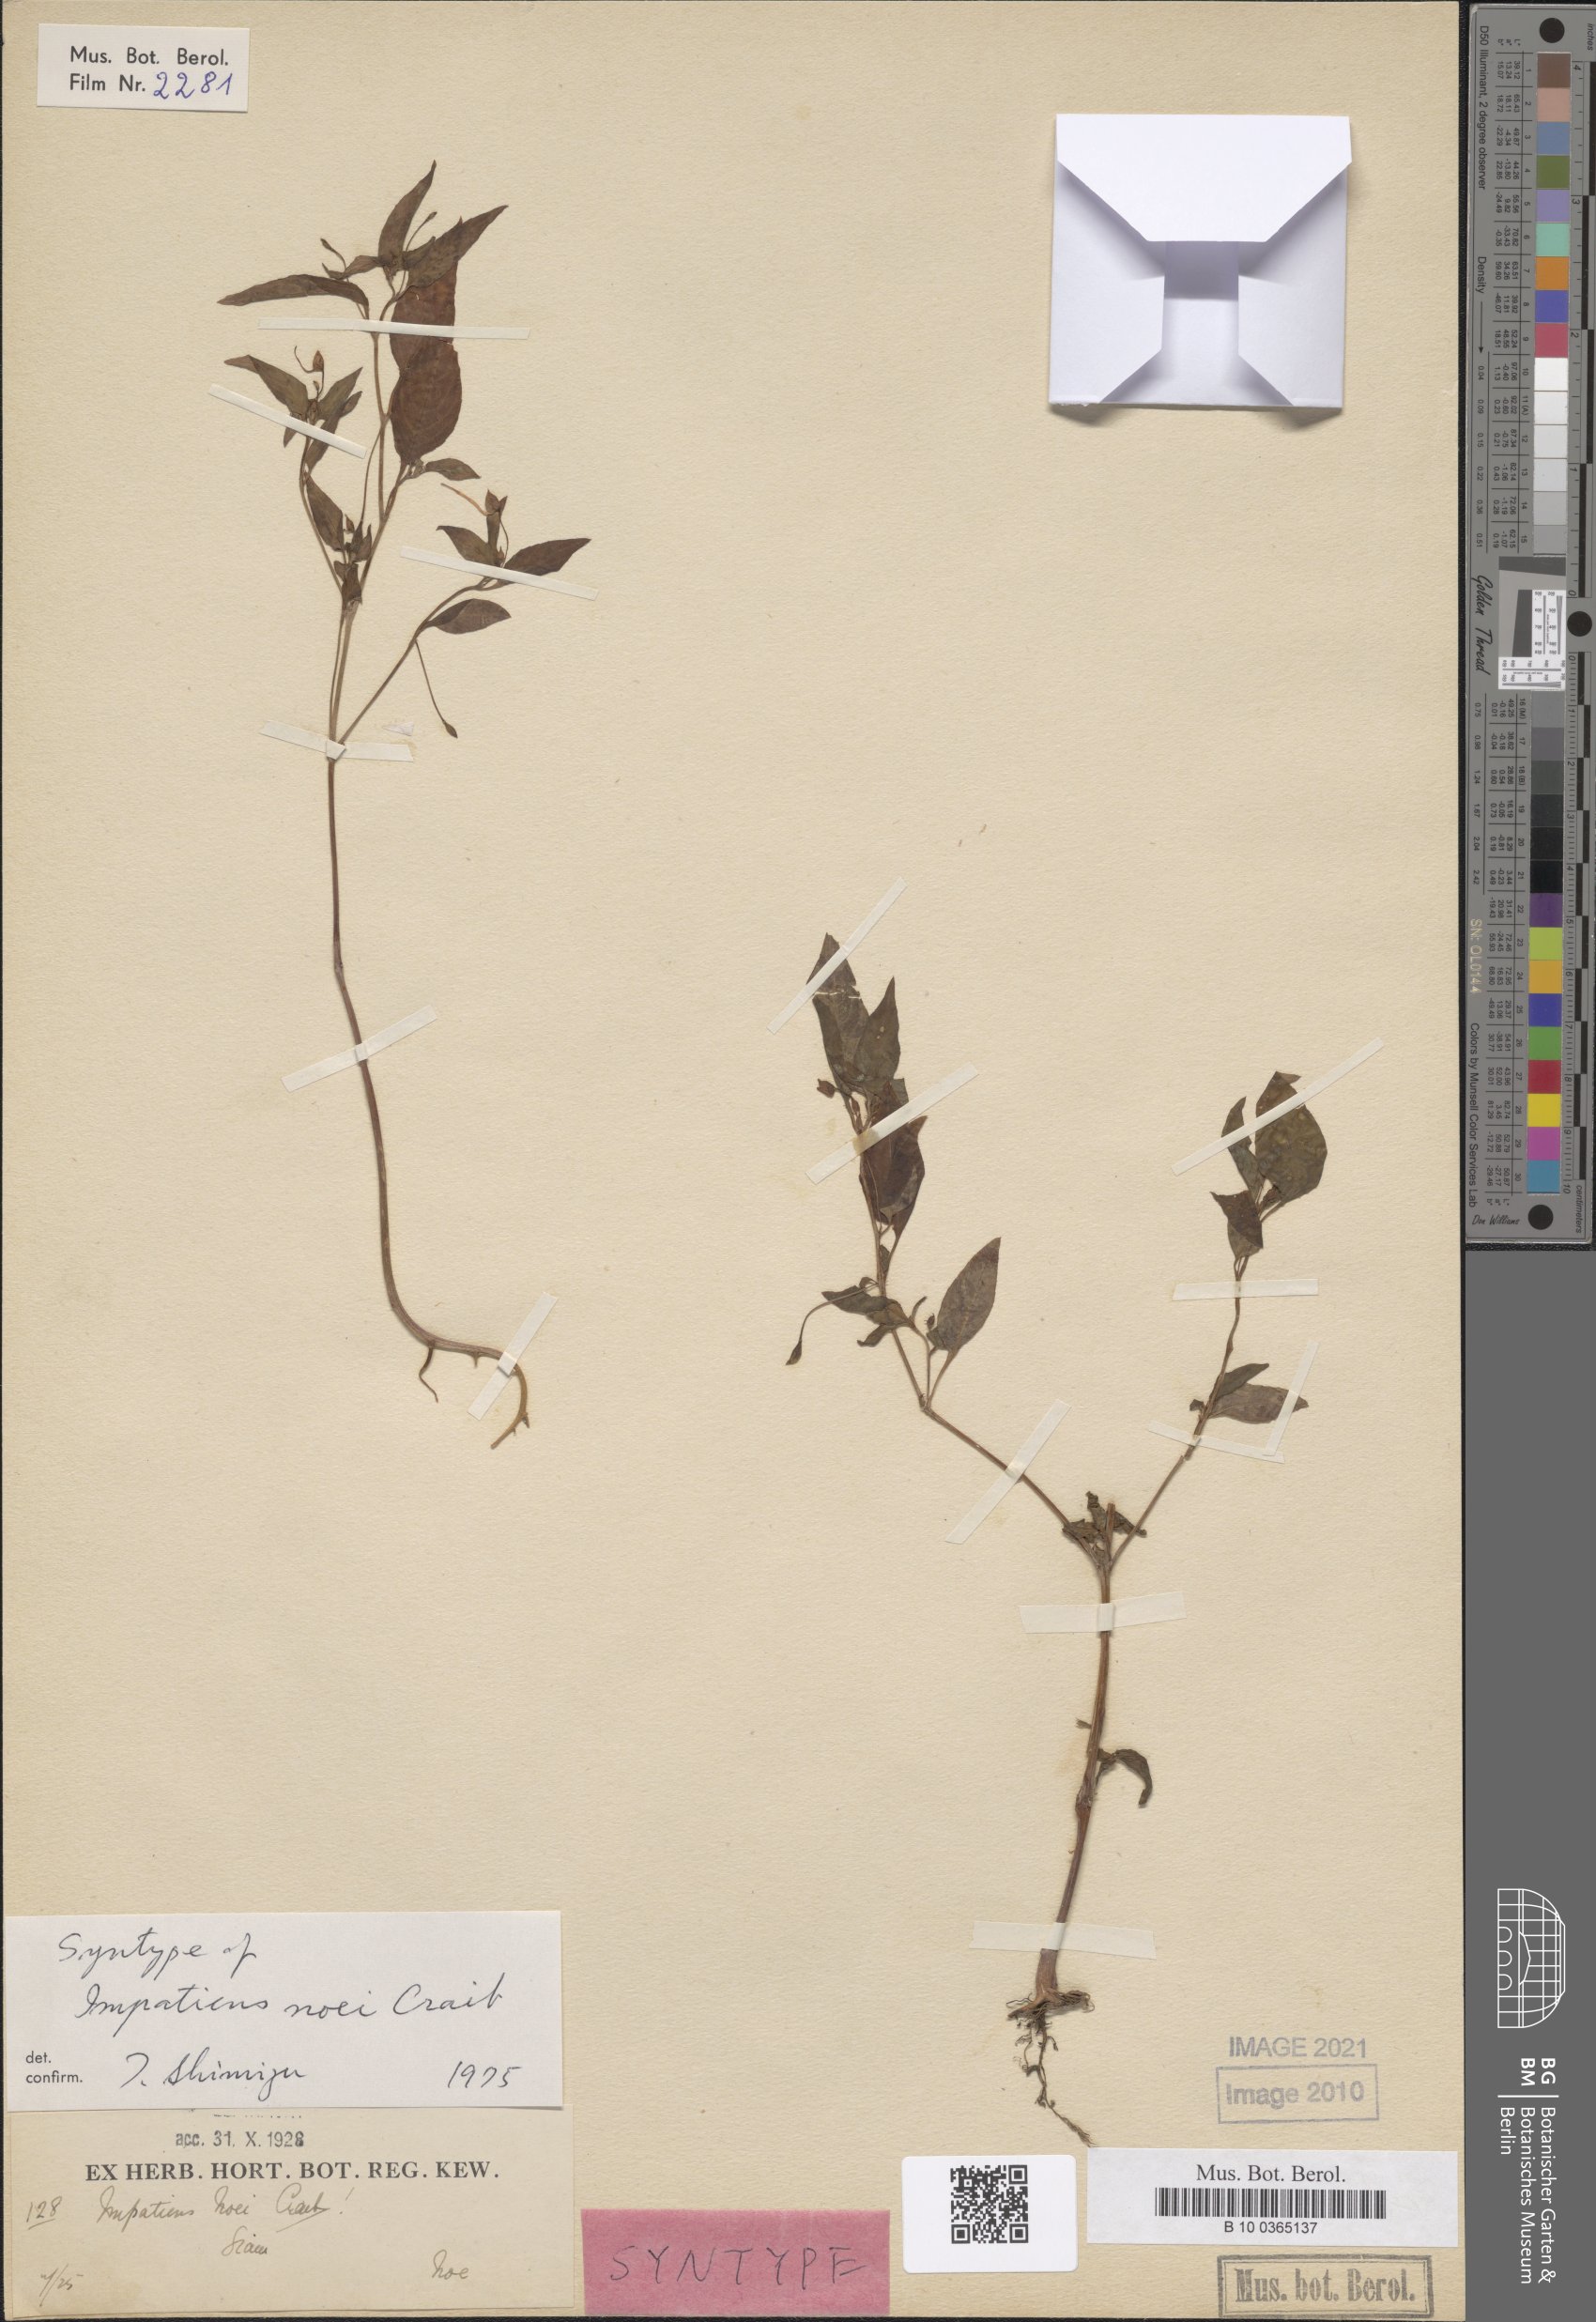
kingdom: Plantae
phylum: Tracheophyta
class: Magnoliopsida
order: Ericales
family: Balsaminaceae
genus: Impatiens
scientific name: Impatiens noei
